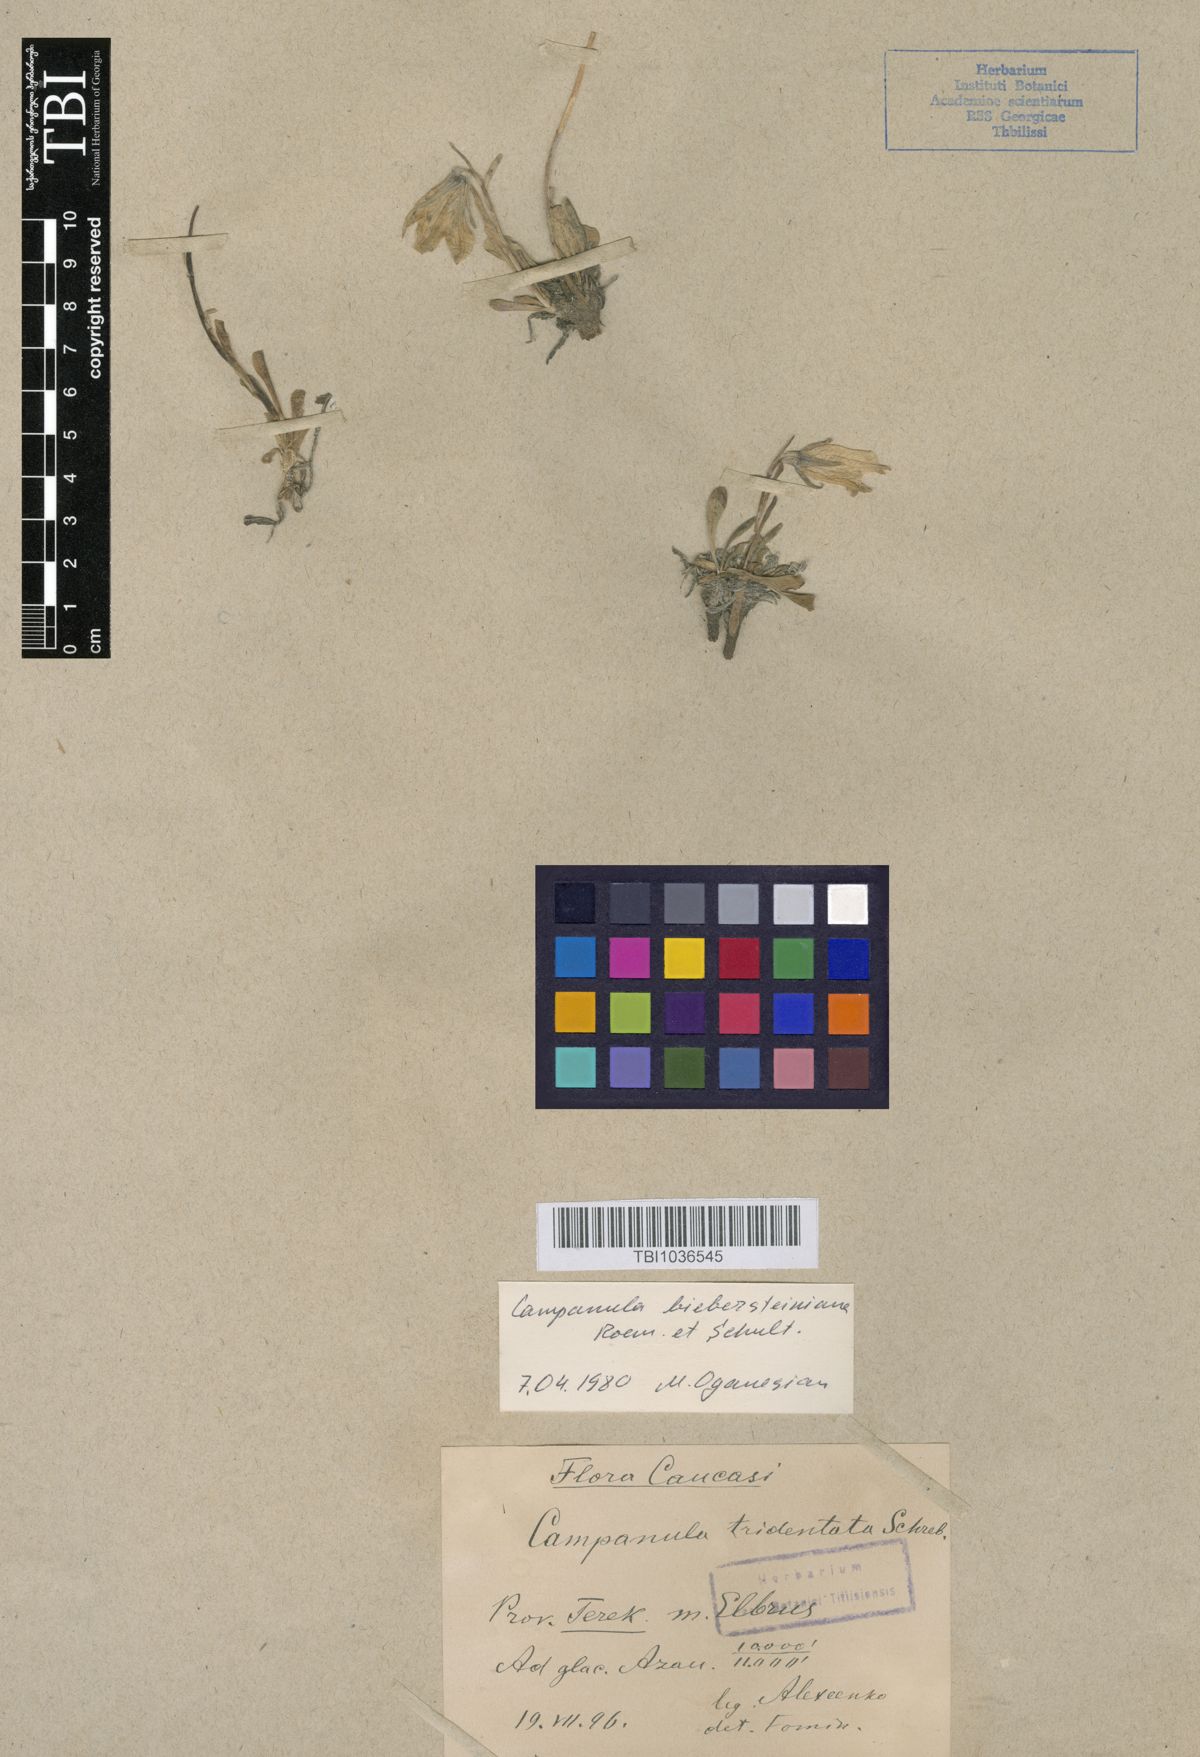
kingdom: Plantae
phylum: Tracheophyta
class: Magnoliopsida
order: Asterales
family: Campanulaceae
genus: Campanula
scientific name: Campanula tridentata
